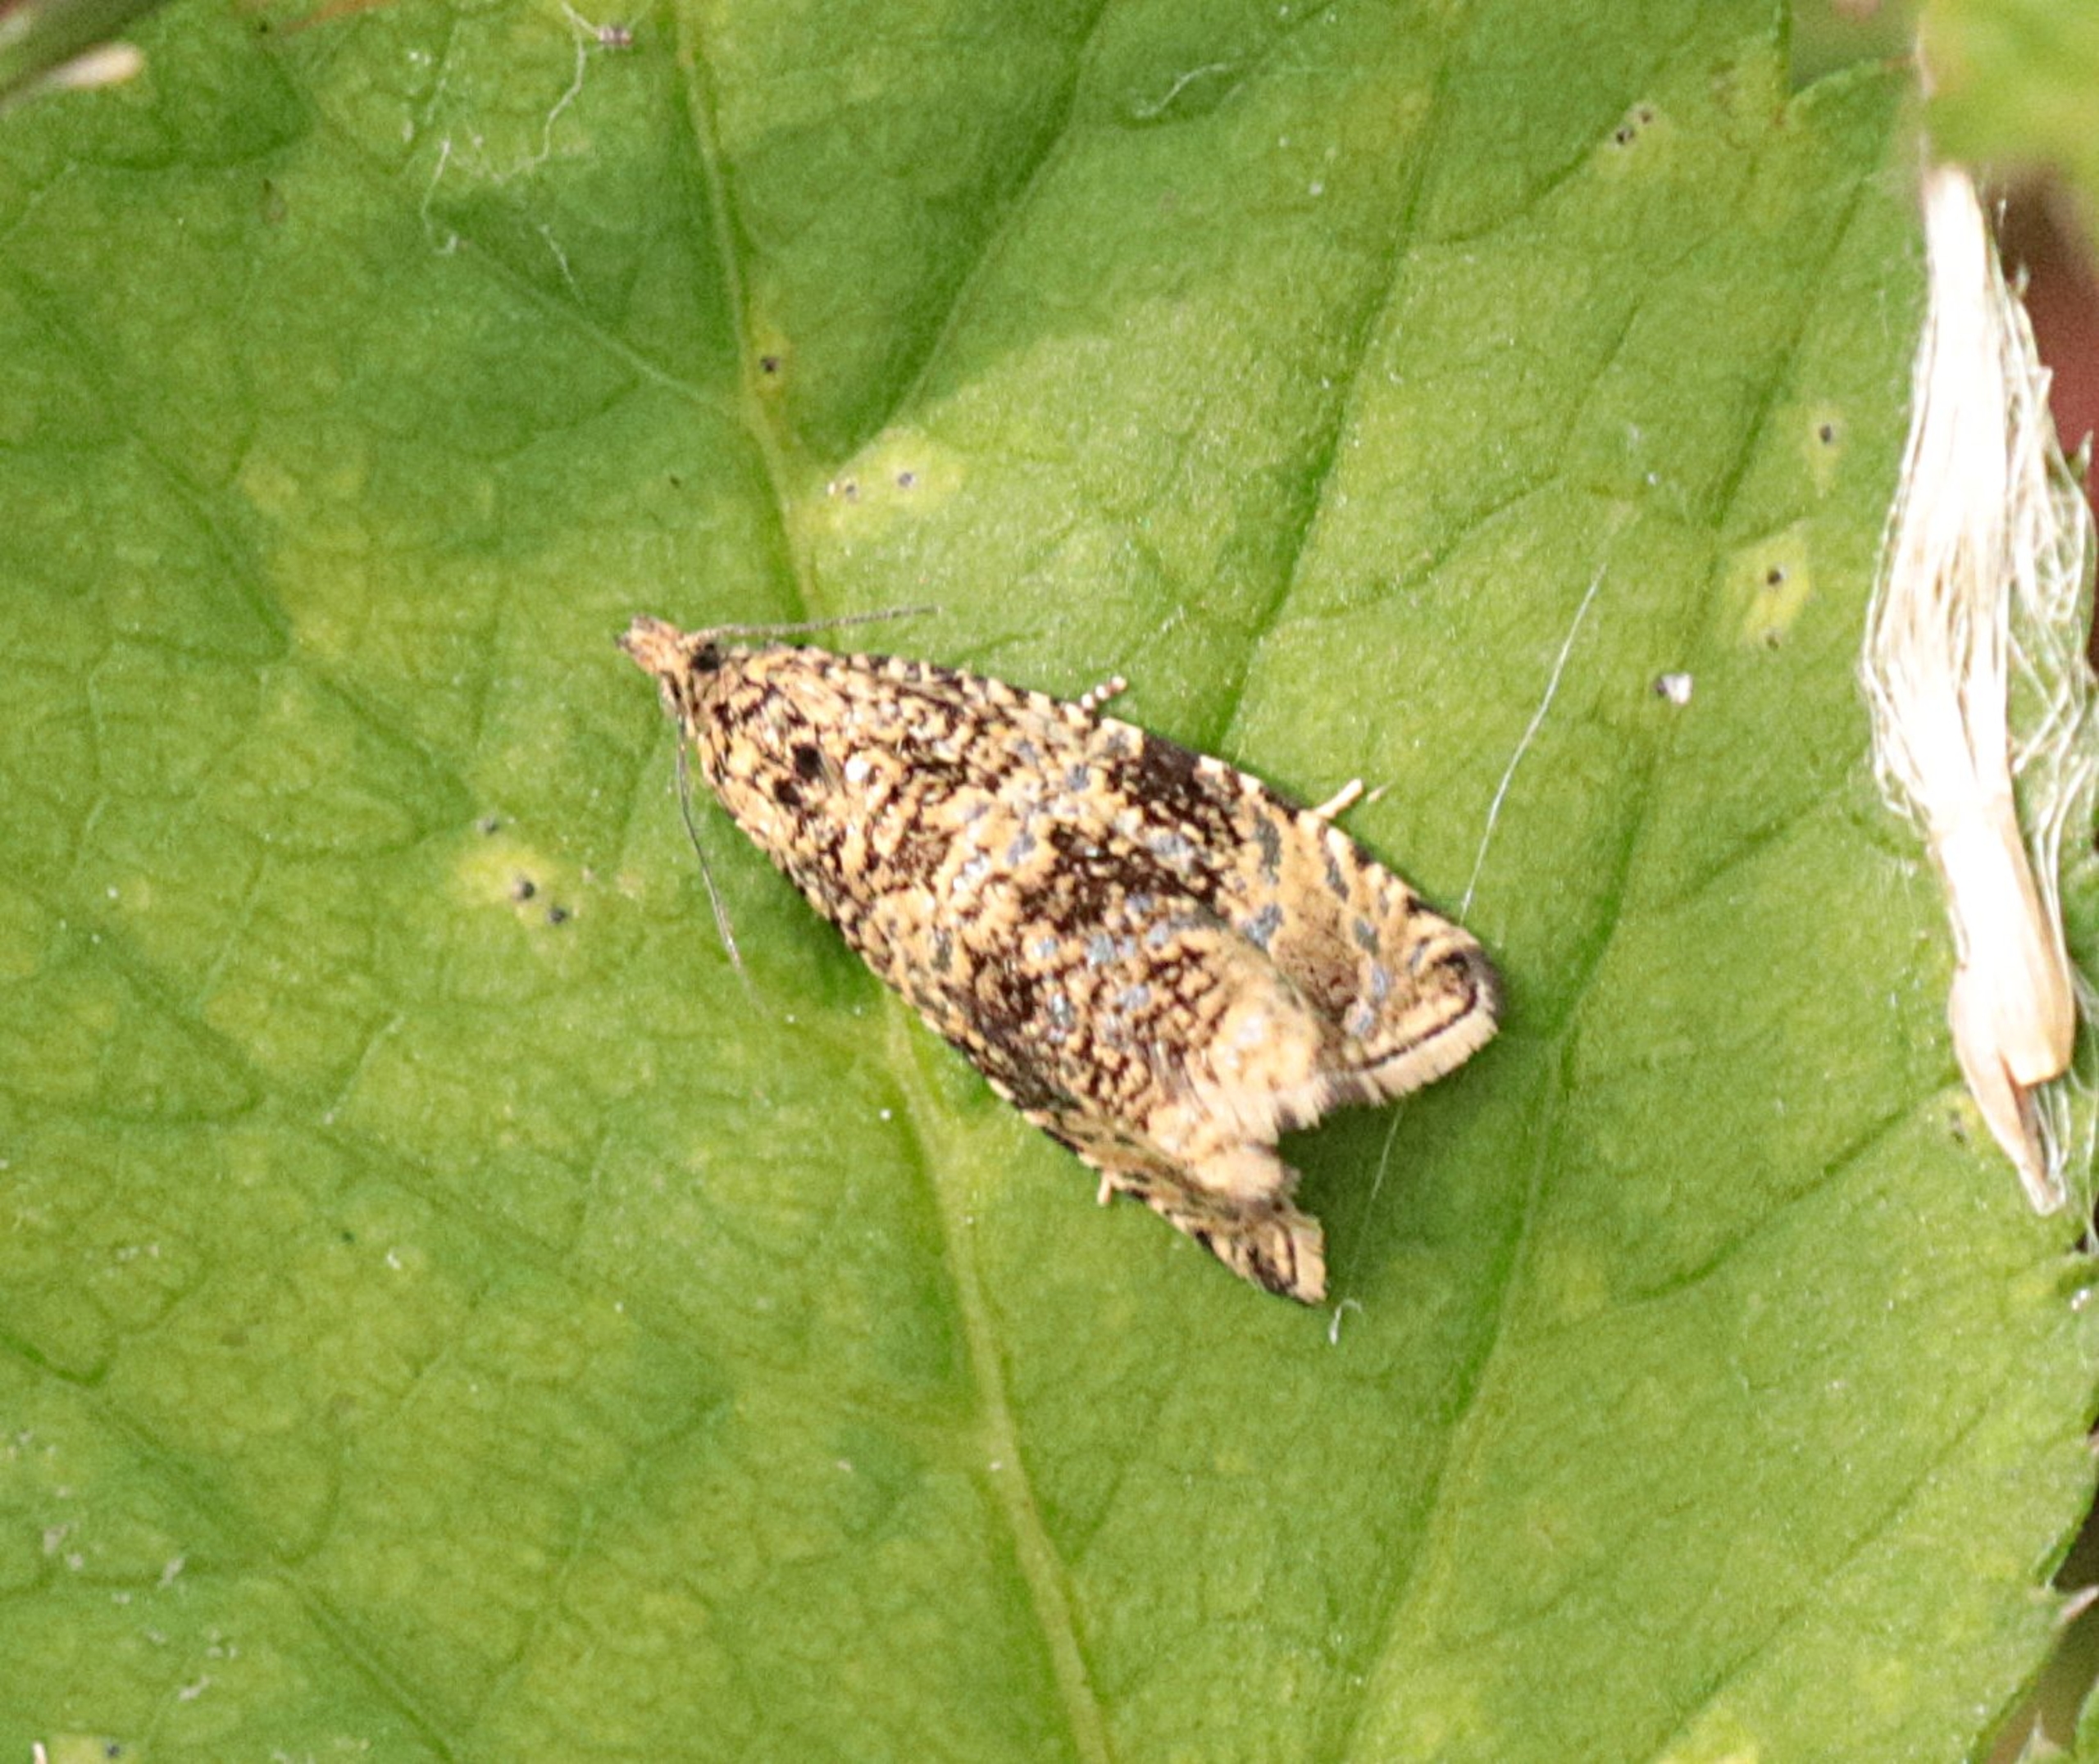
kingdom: Animalia
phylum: Arthropoda
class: Insecta
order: Lepidoptera
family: Tortricidae
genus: Syricoris
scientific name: Syricoris lacunana
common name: Rød jordbærvikler
